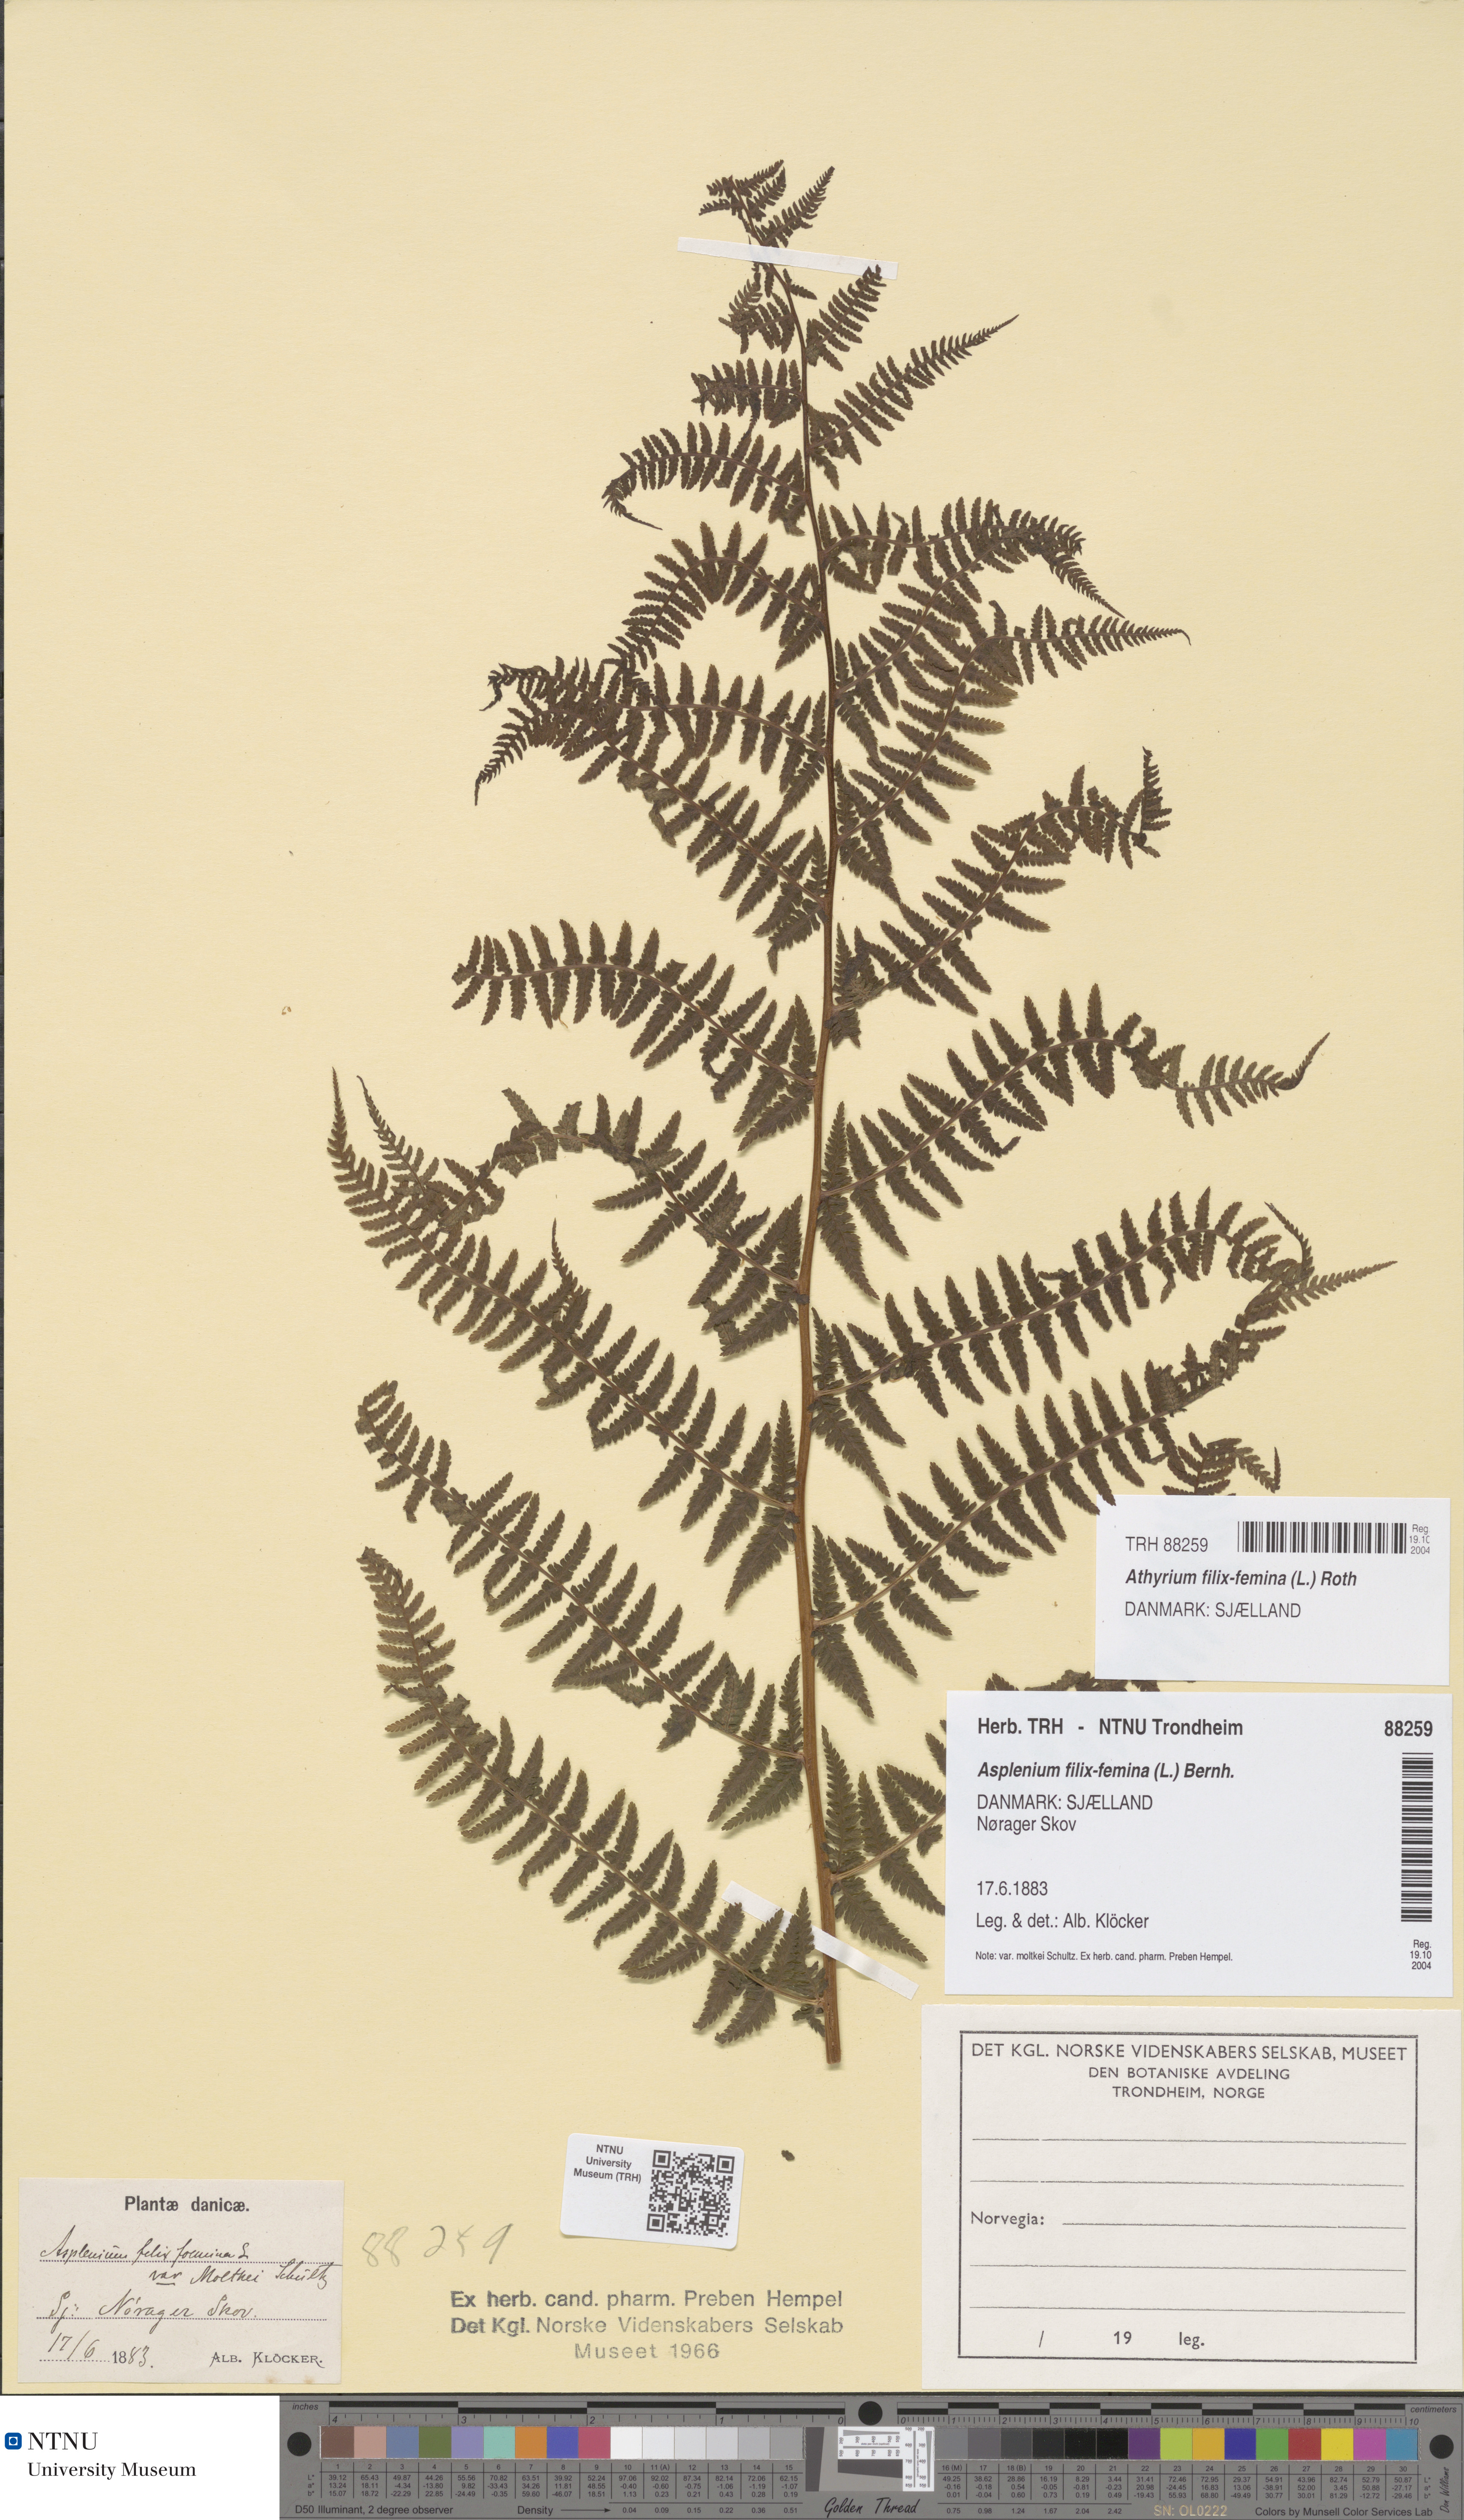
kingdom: Plantae
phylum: Tracheophyta
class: Polypodiopsida
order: Polypodiales
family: Athyriaceae
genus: Athyrium
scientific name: Athyrium filix-femina
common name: Lady fern
